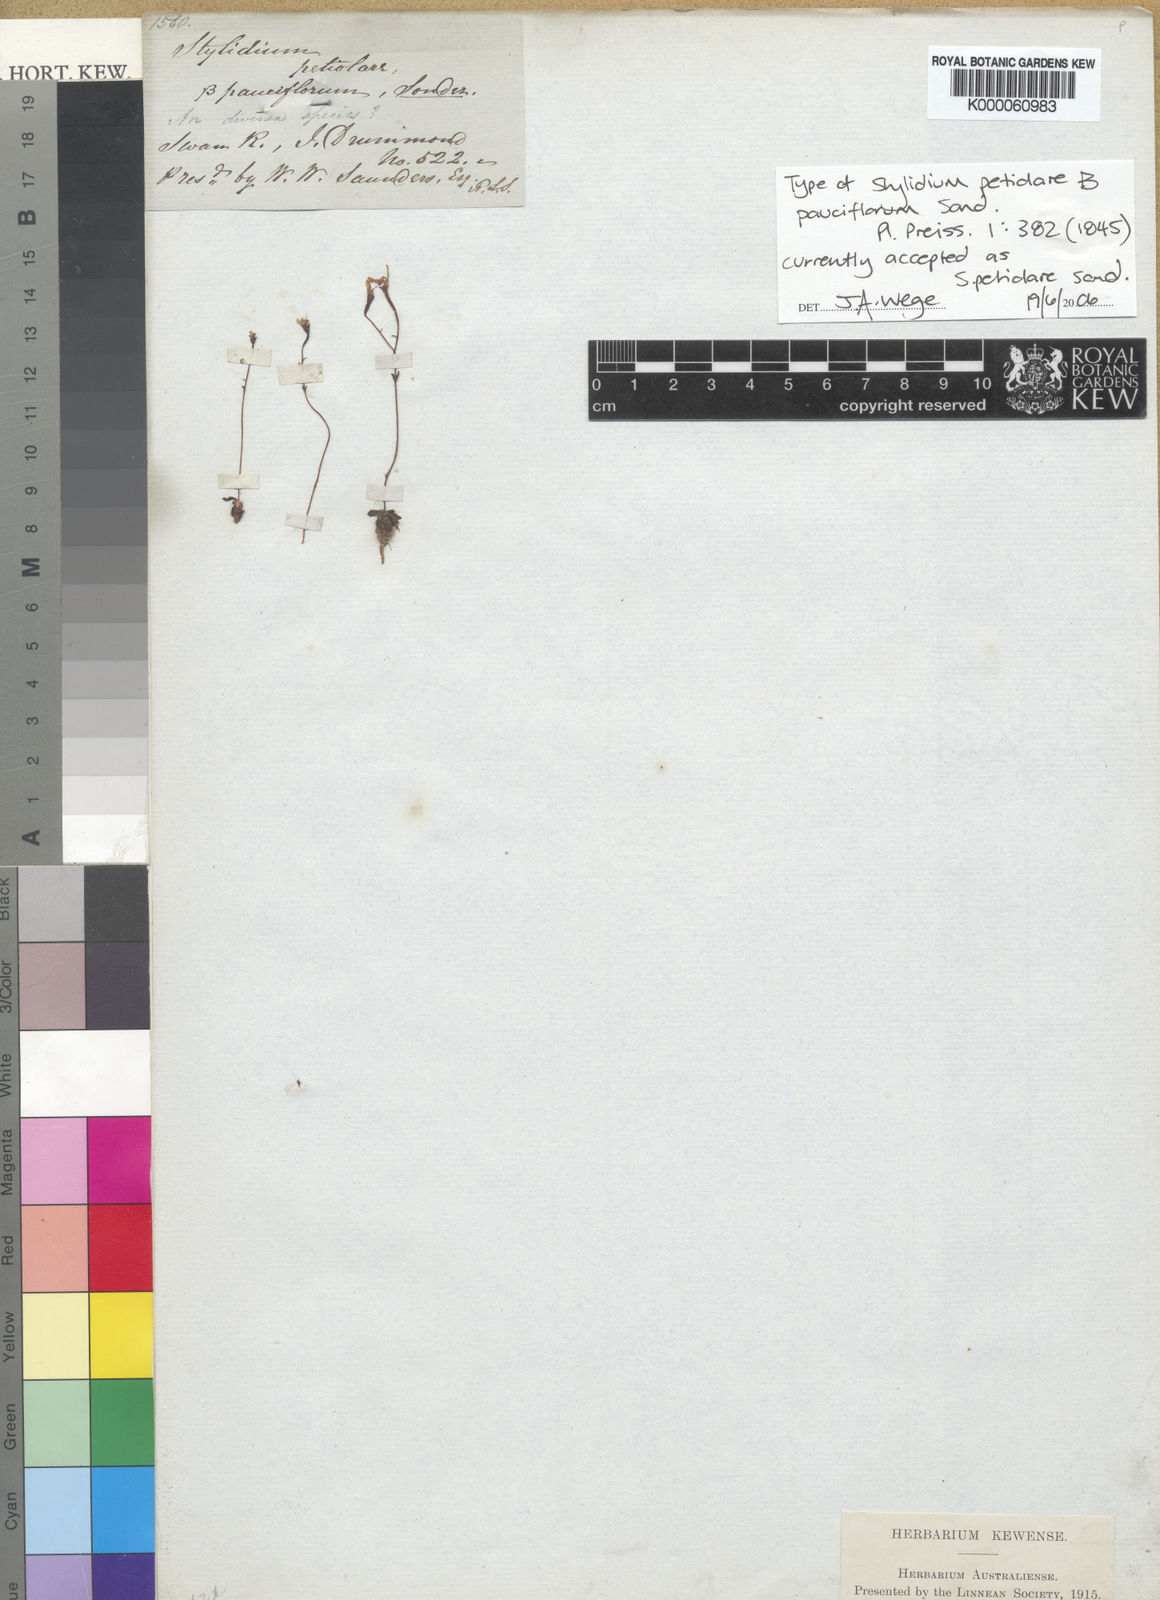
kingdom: Plantae
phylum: Tracheophyta
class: Magnoliopsida
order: Asterales
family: Stylidiaceae
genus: Stylidium
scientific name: Stylidium petiolare
